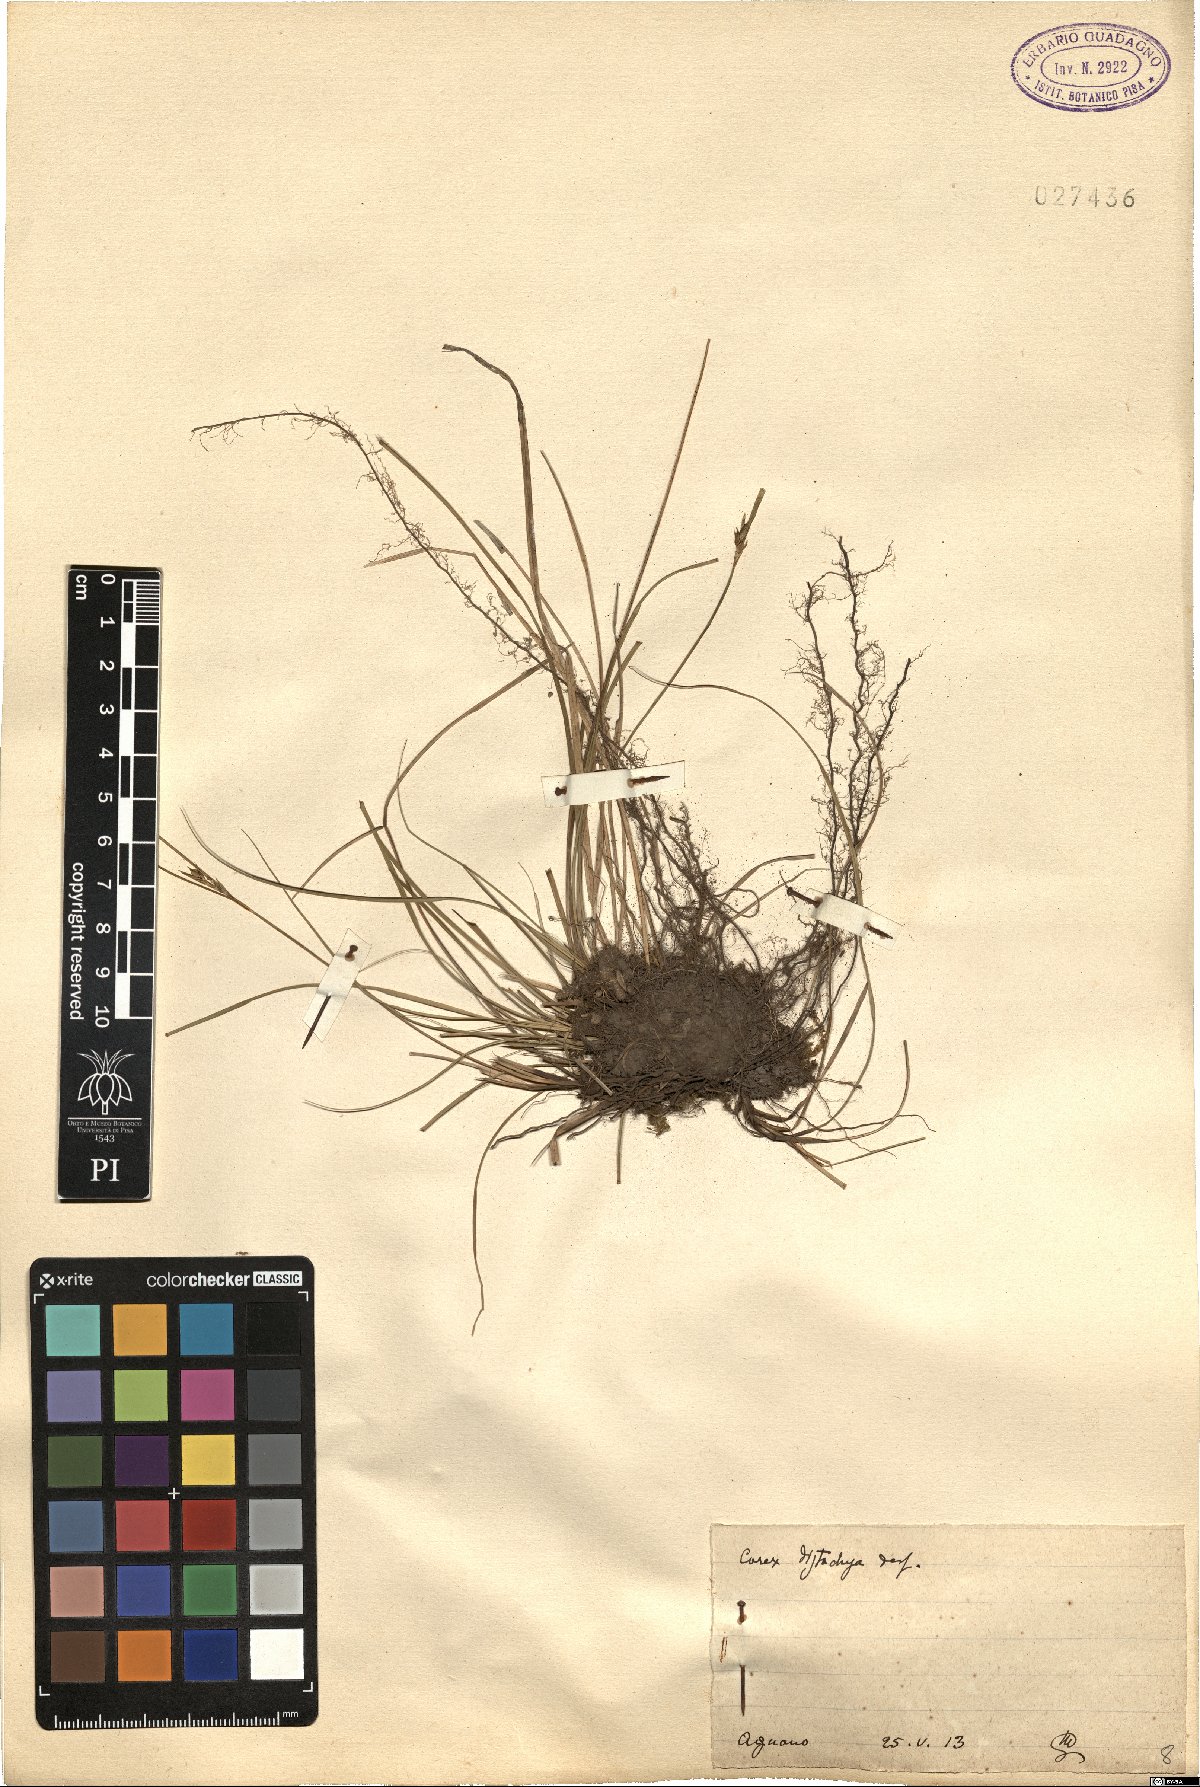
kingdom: Plantae
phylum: Tracheophyta
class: Liliopsida
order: Poales
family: Cyperaceae
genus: Carex
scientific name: Carex distachya
